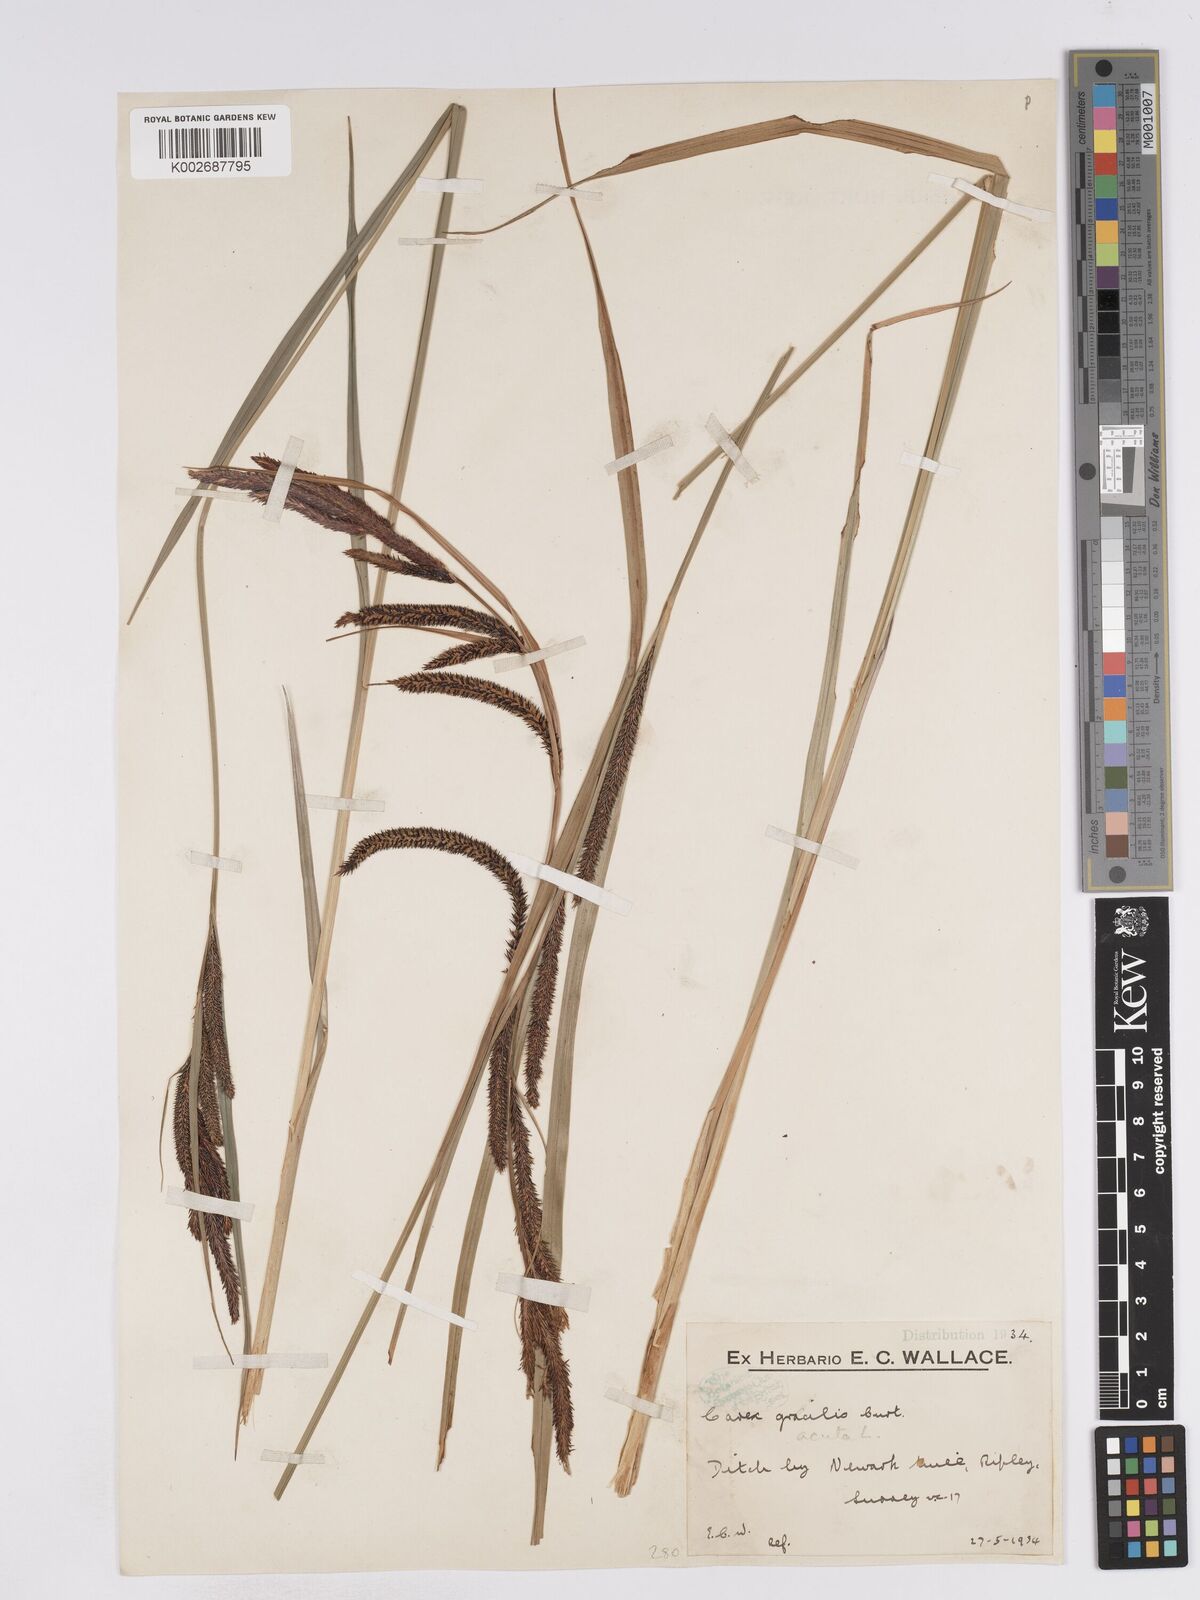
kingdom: Plantae
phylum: Tracheophyta
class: Liliopsida
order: Poales
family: Cyperaceae
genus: Carex
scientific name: Carex acuta
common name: Slender tufted-sedge
